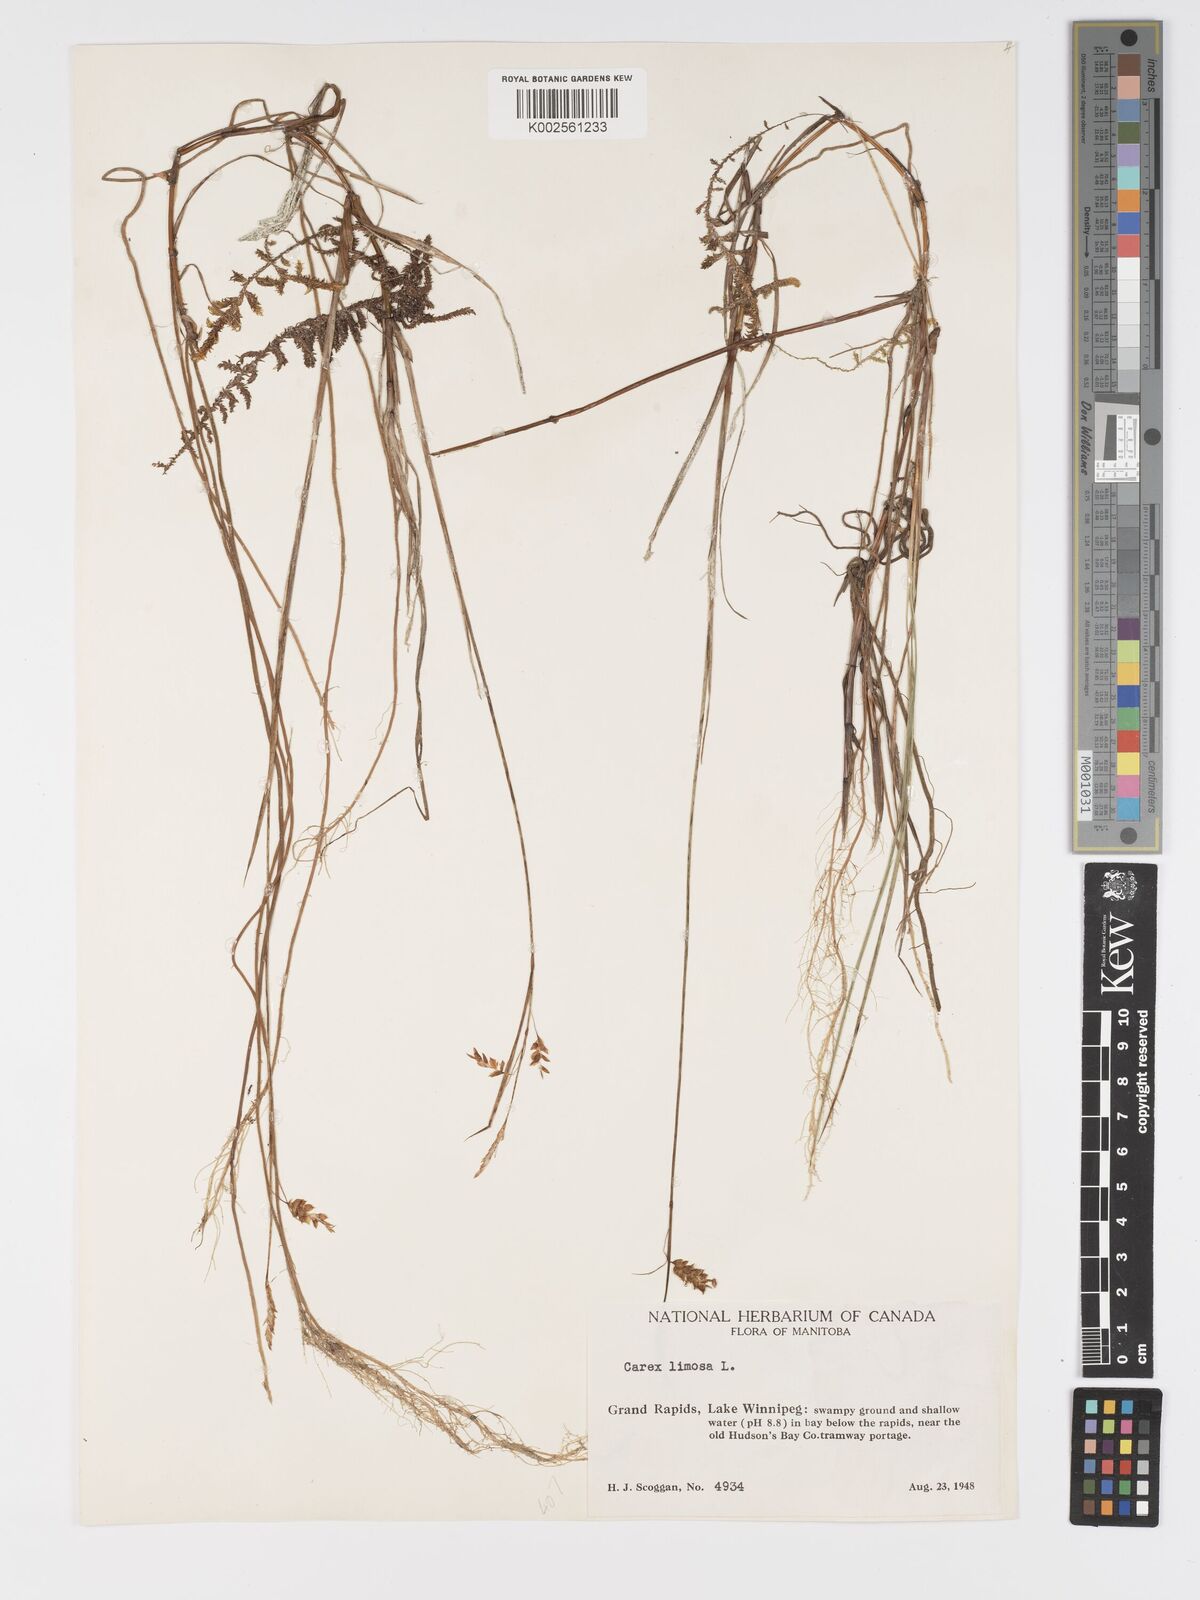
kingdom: Plantae
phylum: Tracheophyta
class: Liliopsida
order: Poales
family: Cyperaceae
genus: Carex
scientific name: Carex limosa
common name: Bog sedge
